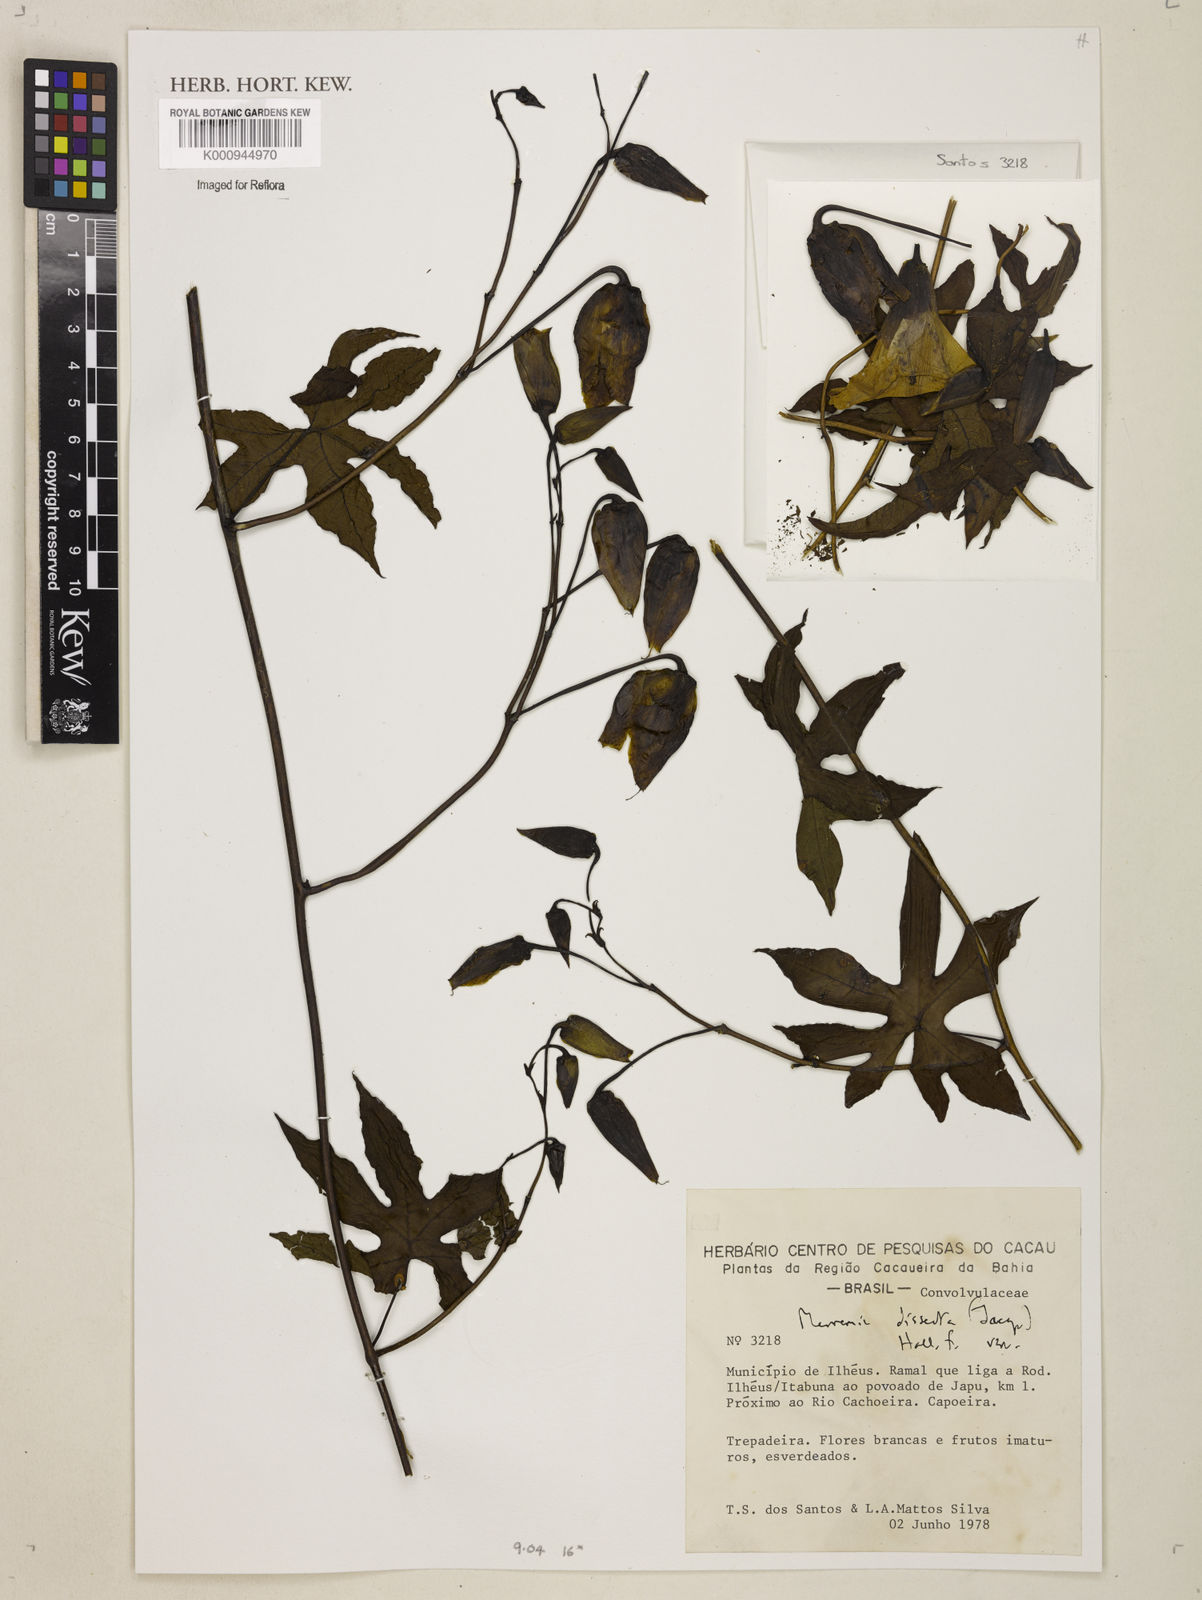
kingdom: Plantae
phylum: Tracheophyta
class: Magnoliopsida
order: Solanales
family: Convolvulaceae
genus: Distimake
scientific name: Distimake dissectus
